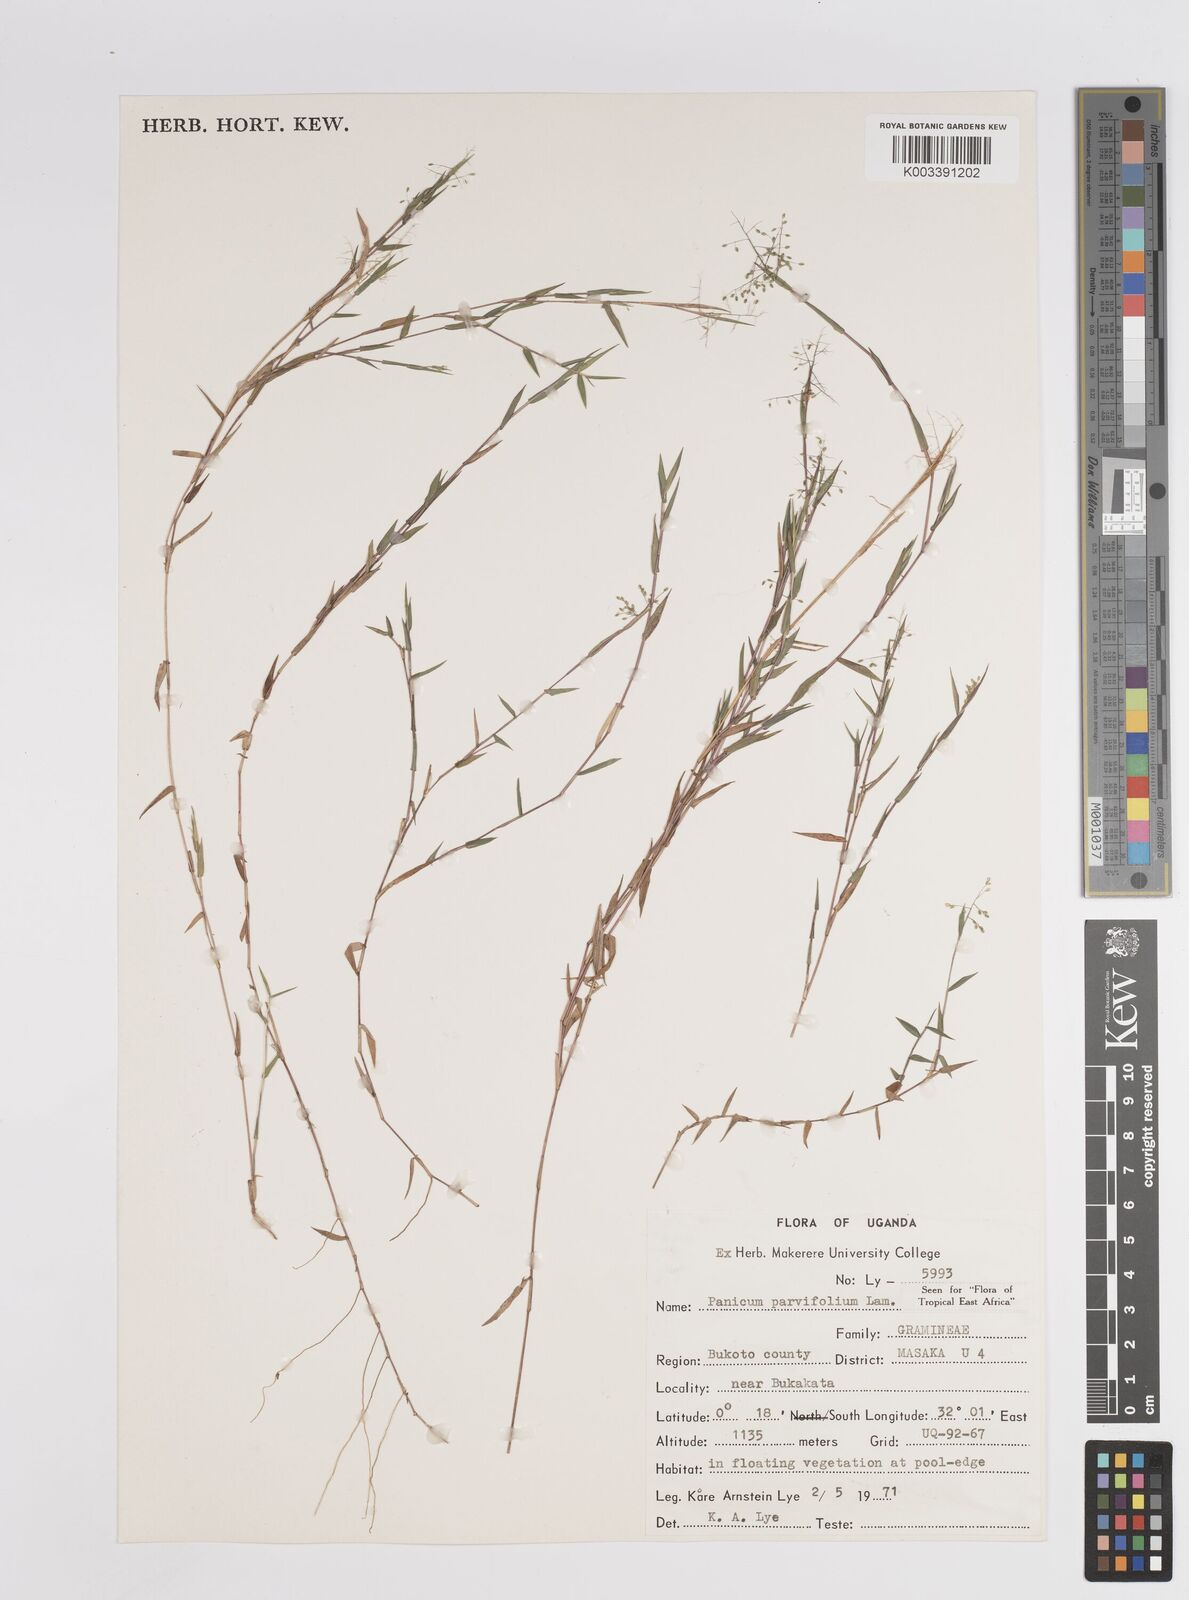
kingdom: Plantae
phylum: Tracheophyta
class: Liliopsida
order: Poales
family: Poaceae
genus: Trichanthecium
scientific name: Trichanthecium parvifolium
